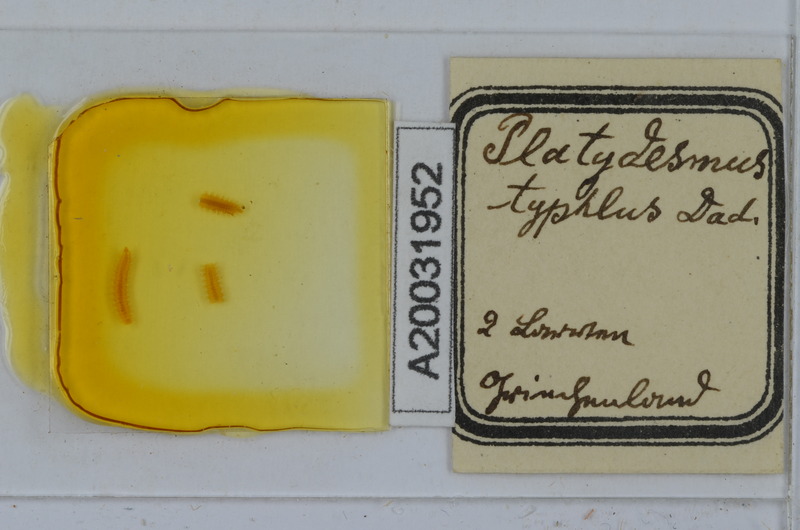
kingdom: Animalia
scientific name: Animalia
